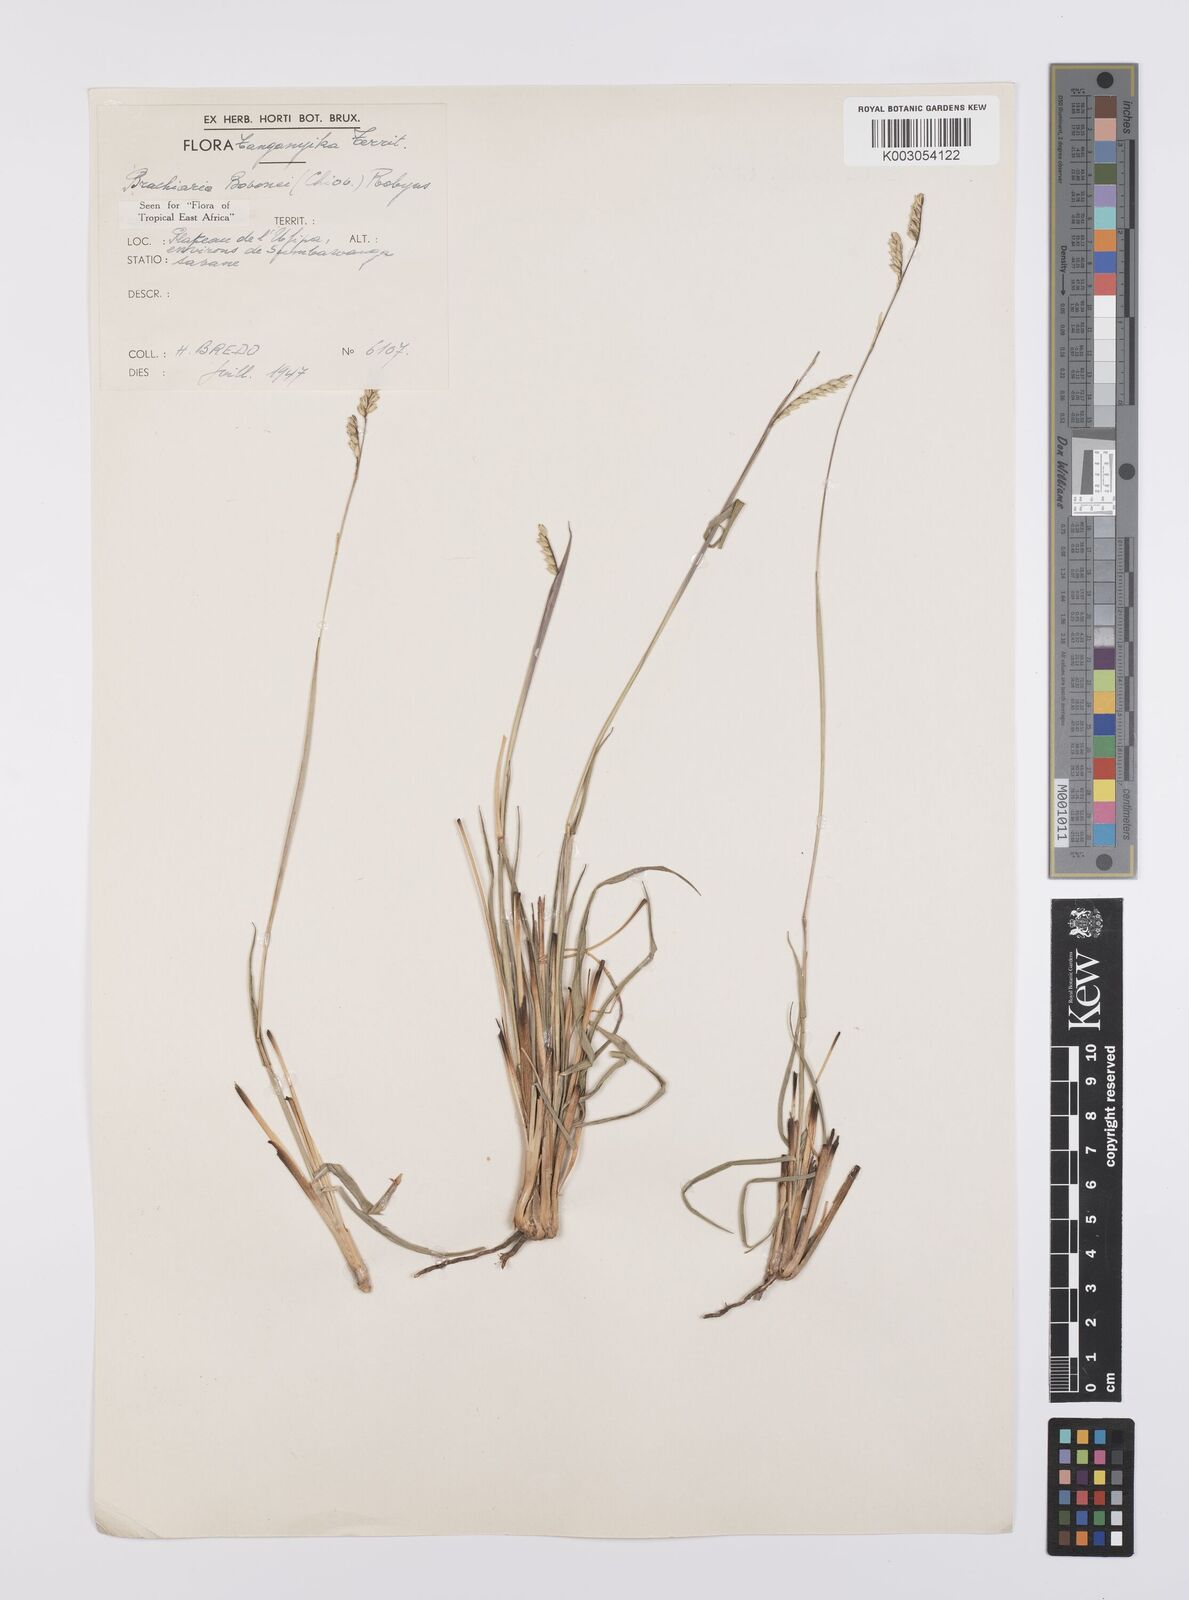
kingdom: Plantae
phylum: Tracheophyta
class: Liliopsida
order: Poales
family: Poaceae
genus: Urochloa
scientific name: Urochloa bovonei
